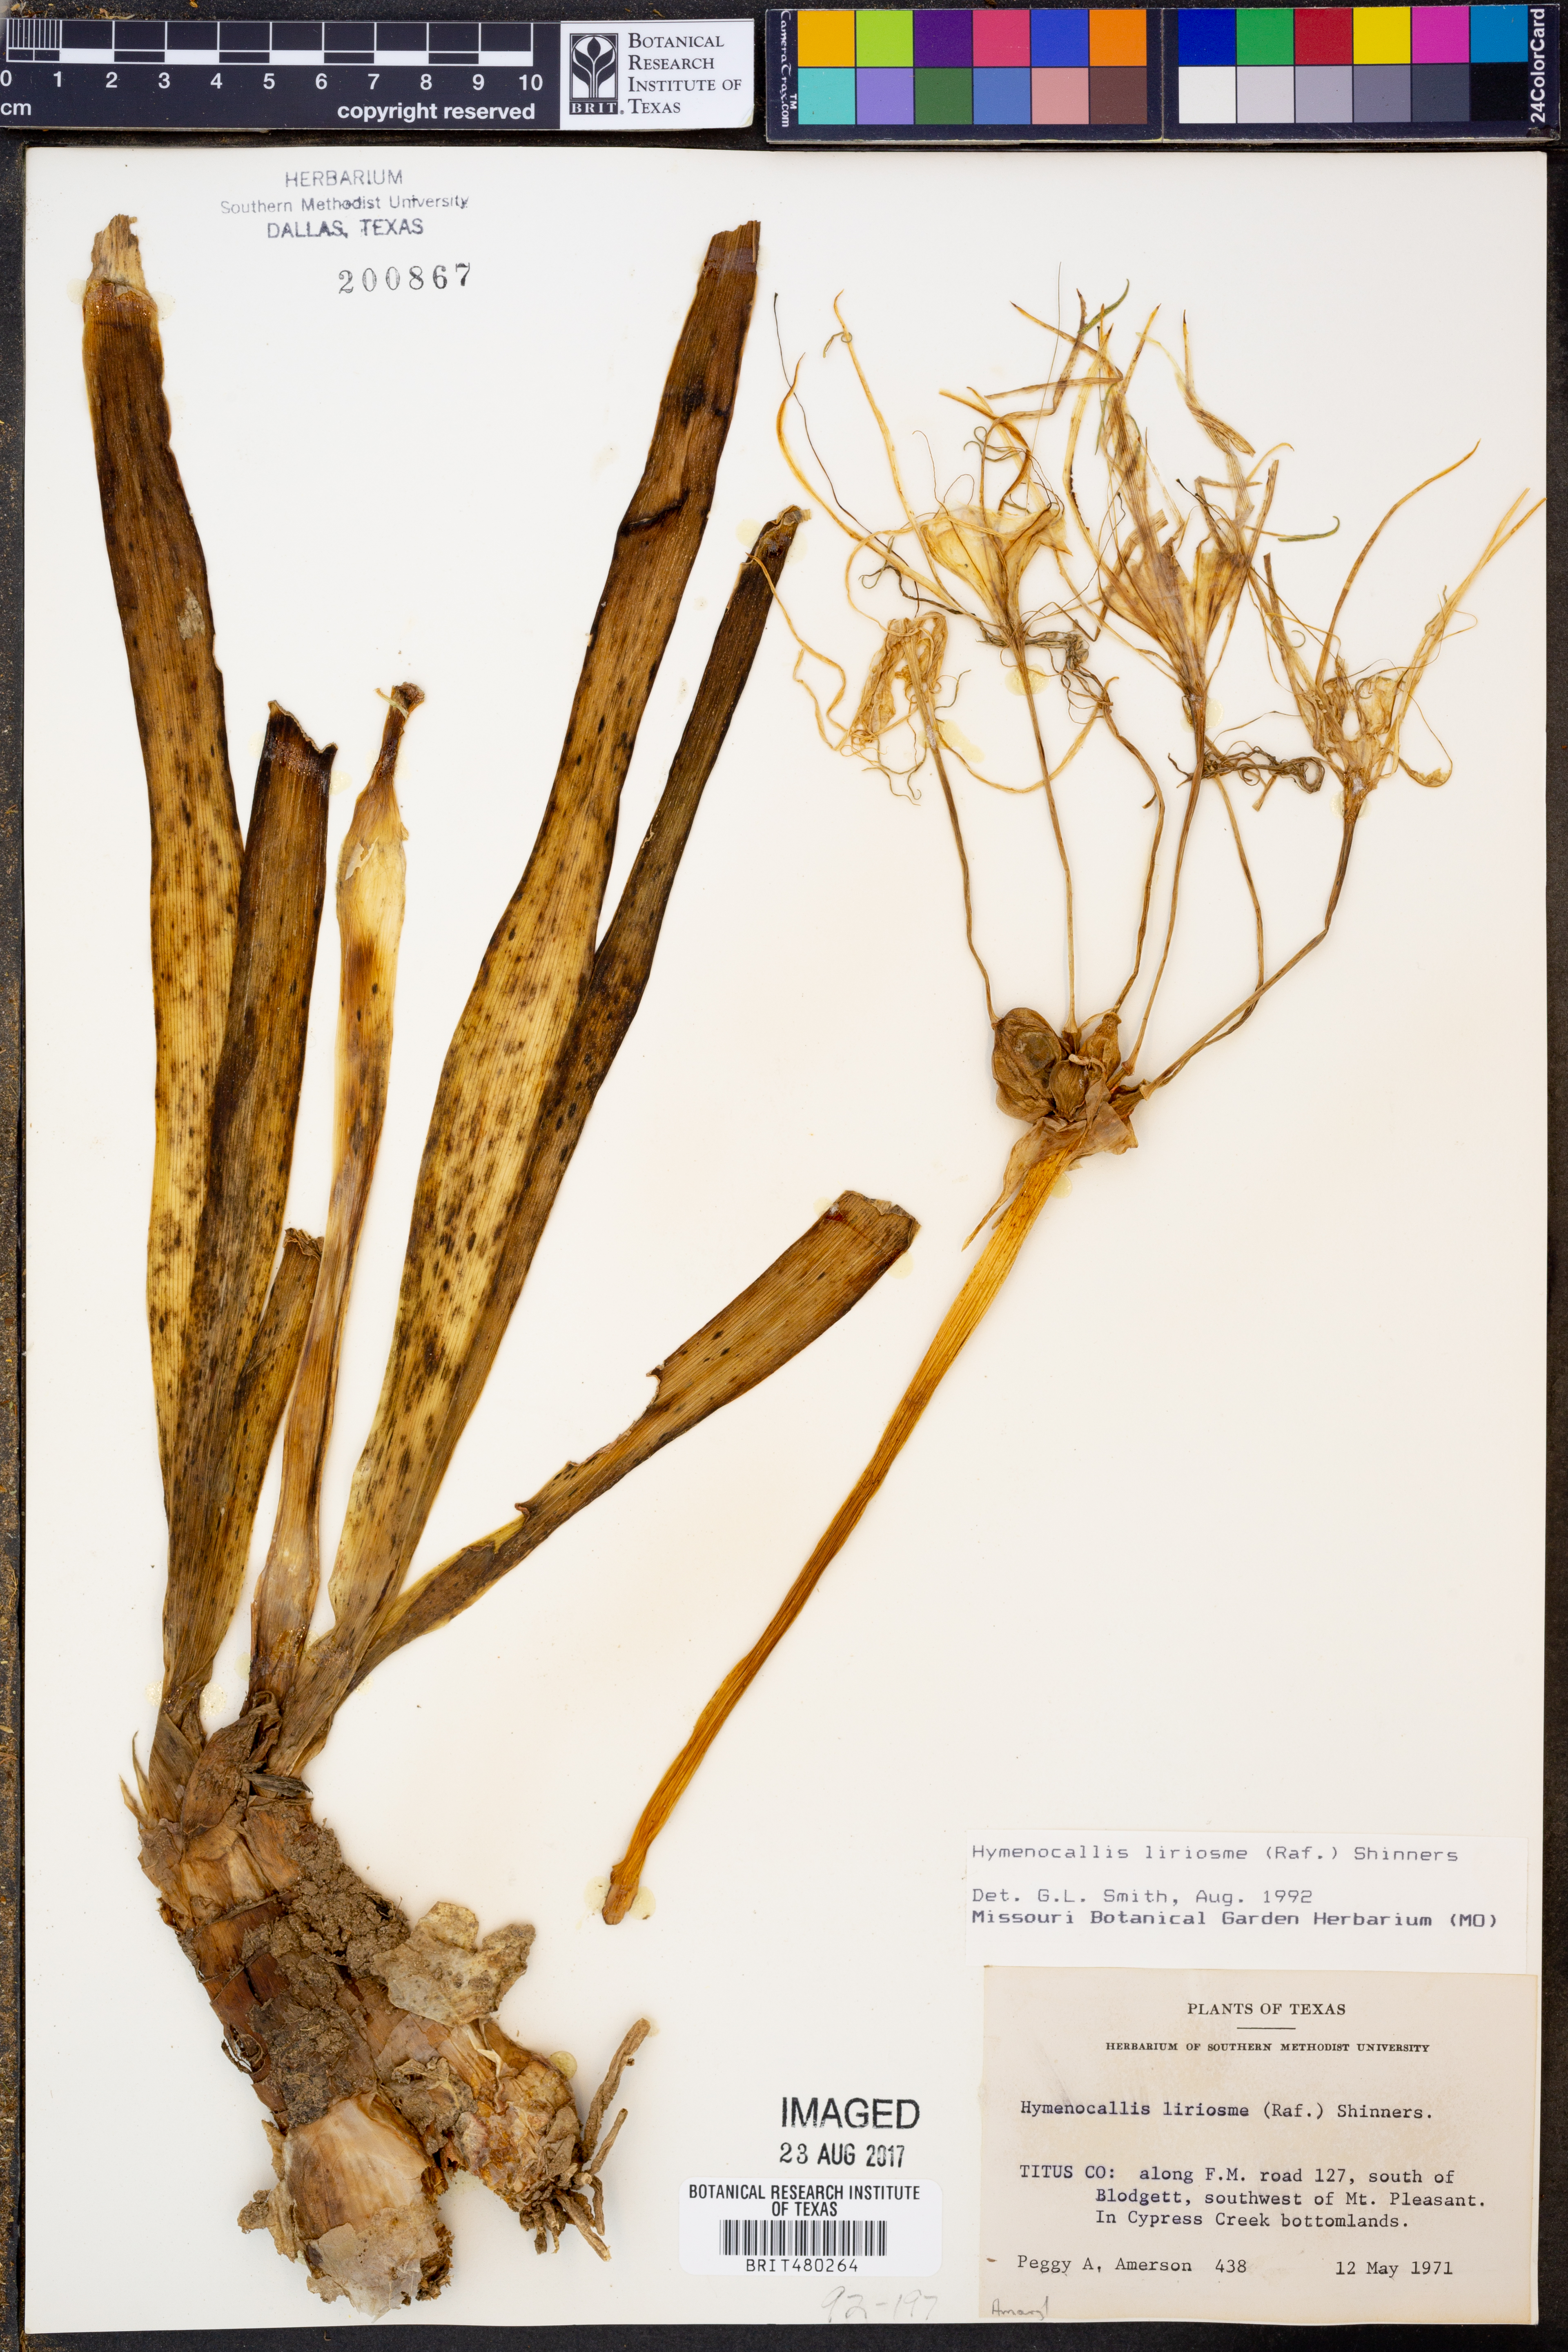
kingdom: Plantae
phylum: Tracheophyta
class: Liliopsida
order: Asparagales
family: Amaryllidaceae
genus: Hymenocallis
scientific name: Hymenocallis liriosme
